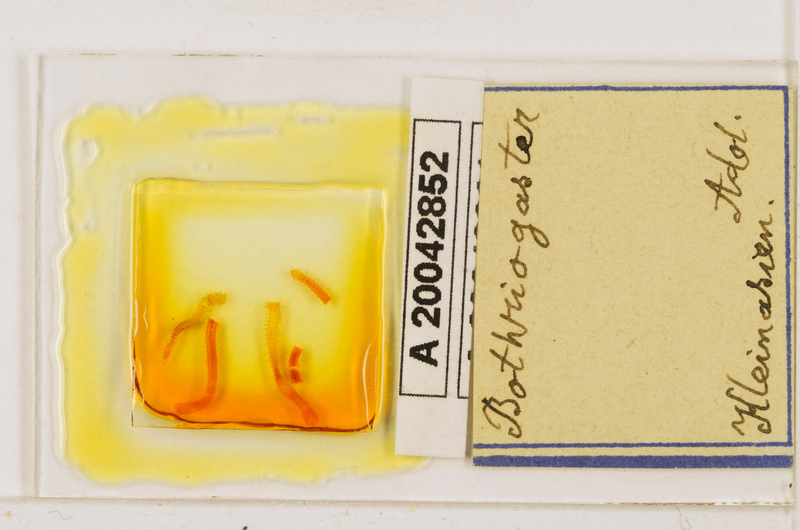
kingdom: Animalia
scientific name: Animalia
